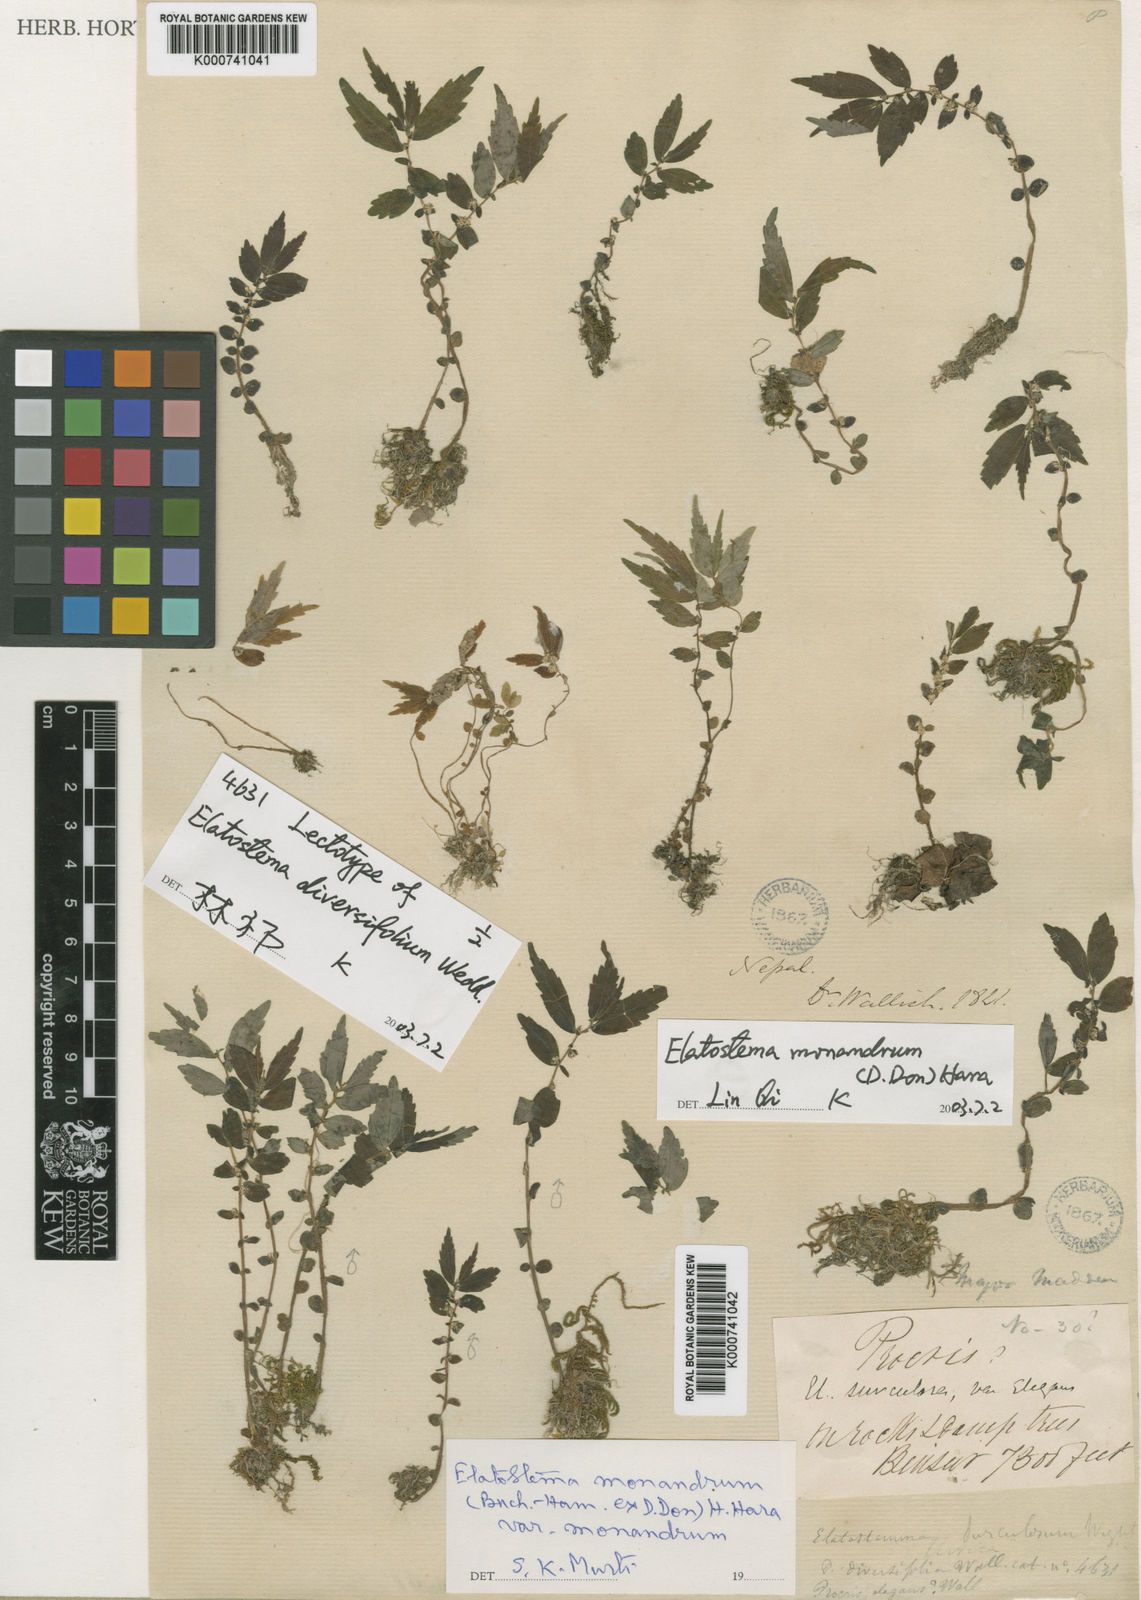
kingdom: Plantae
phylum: Tracheophyta
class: Magnoliopsida
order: Rosales
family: Urticaceae
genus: Elatostema
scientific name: Elatostema monandrum
